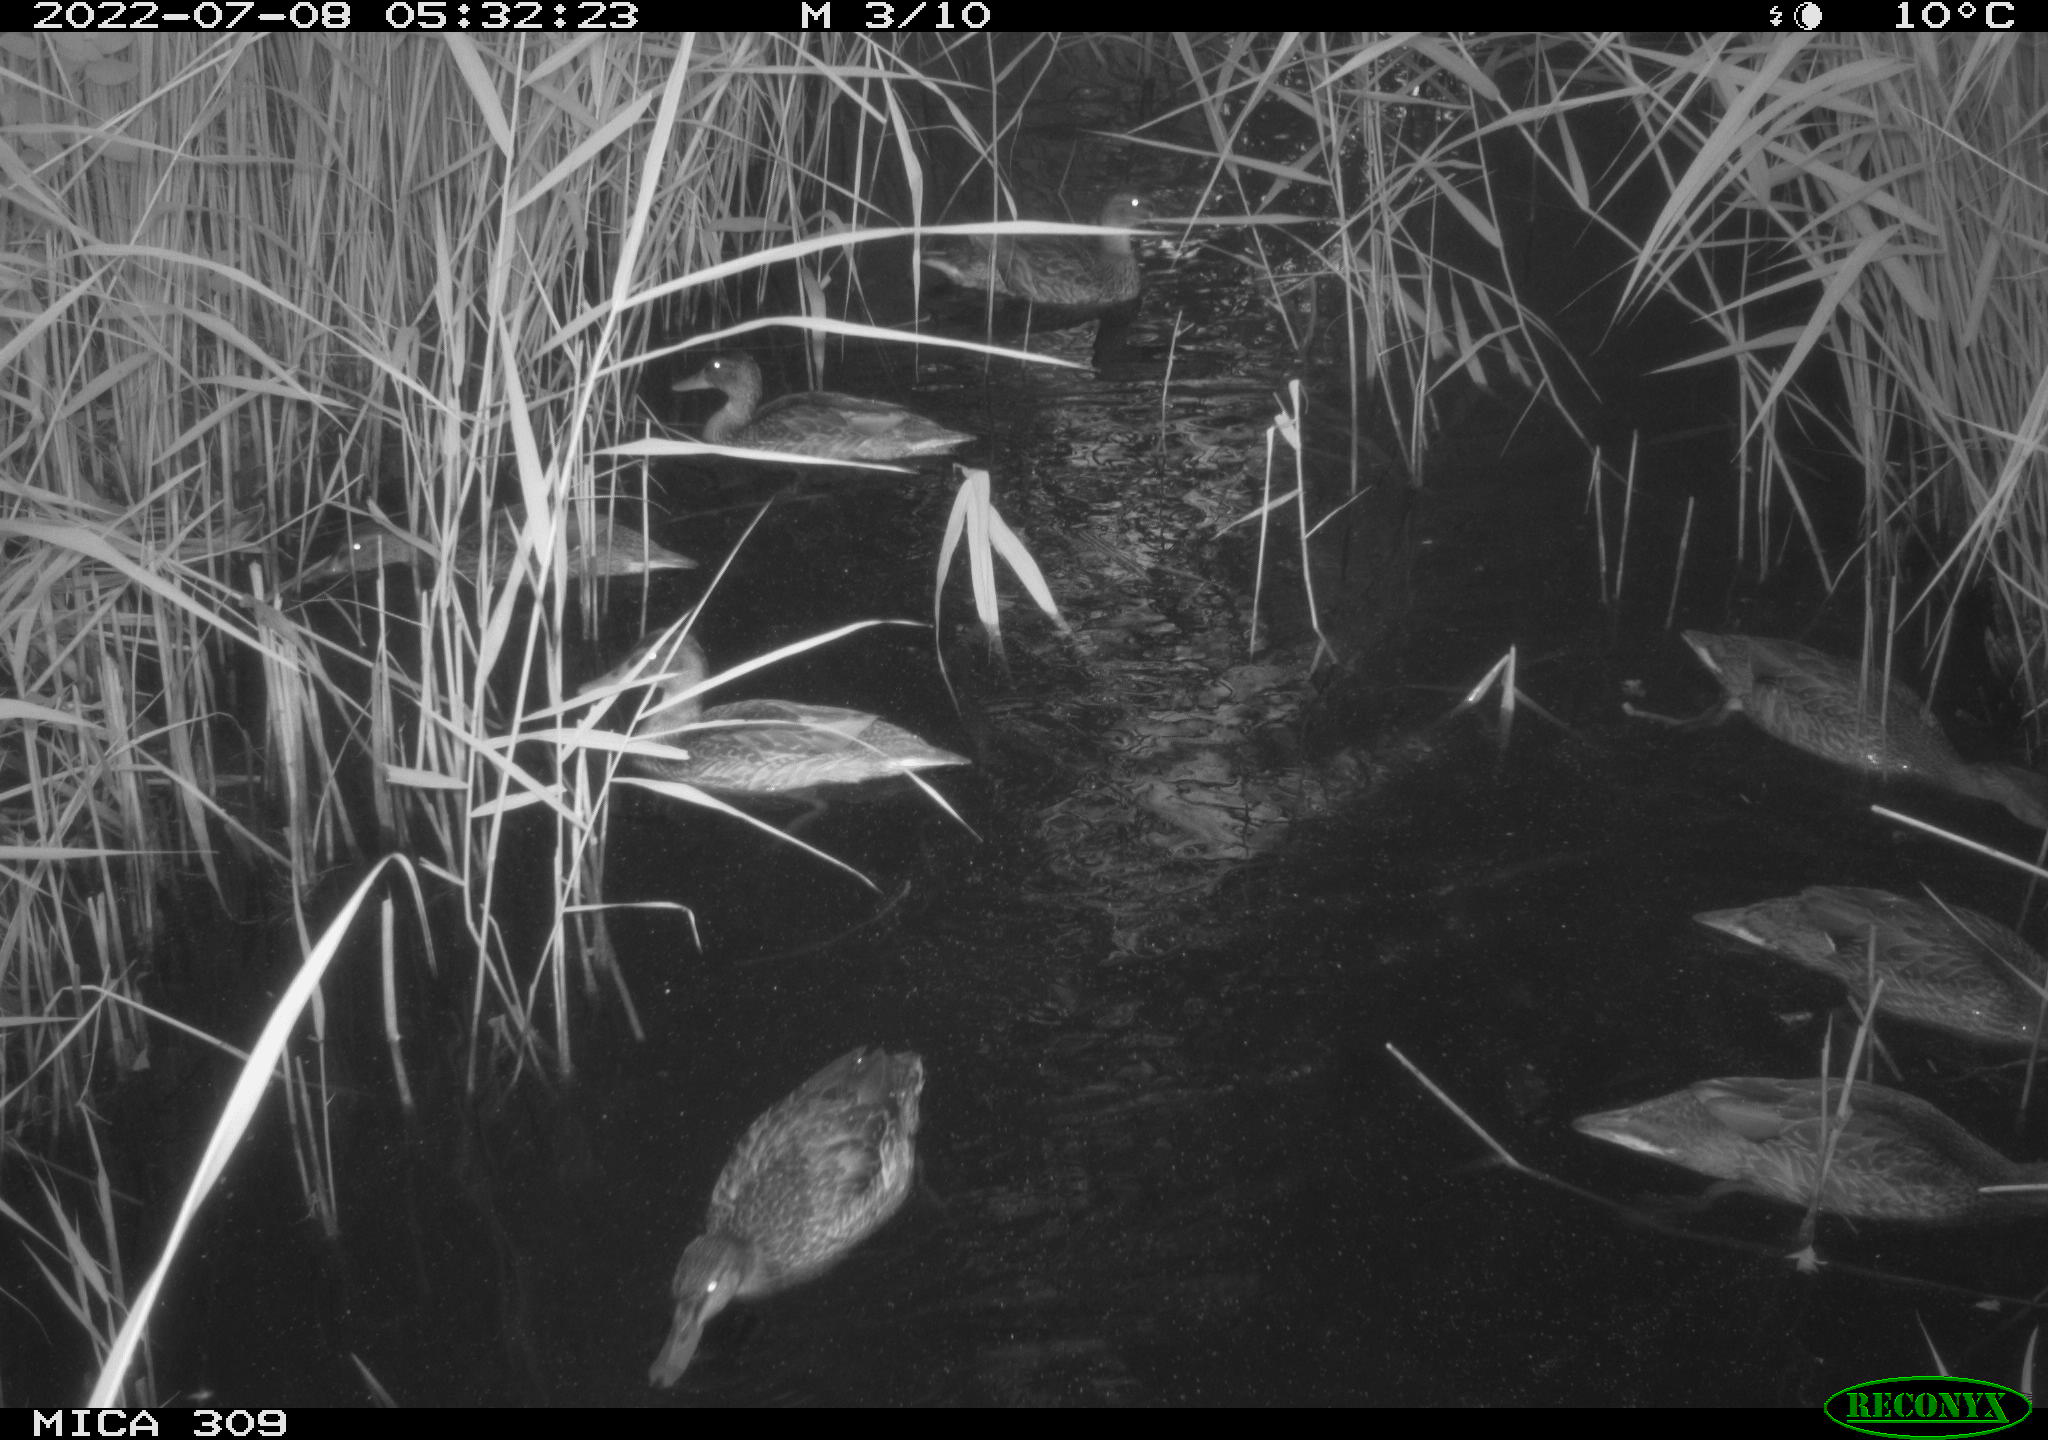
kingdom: Animalia
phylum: Chordata
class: Aves
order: Anseriformes
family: Anatidae
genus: Mareca
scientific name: Mareca strepera
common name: Gadwall
